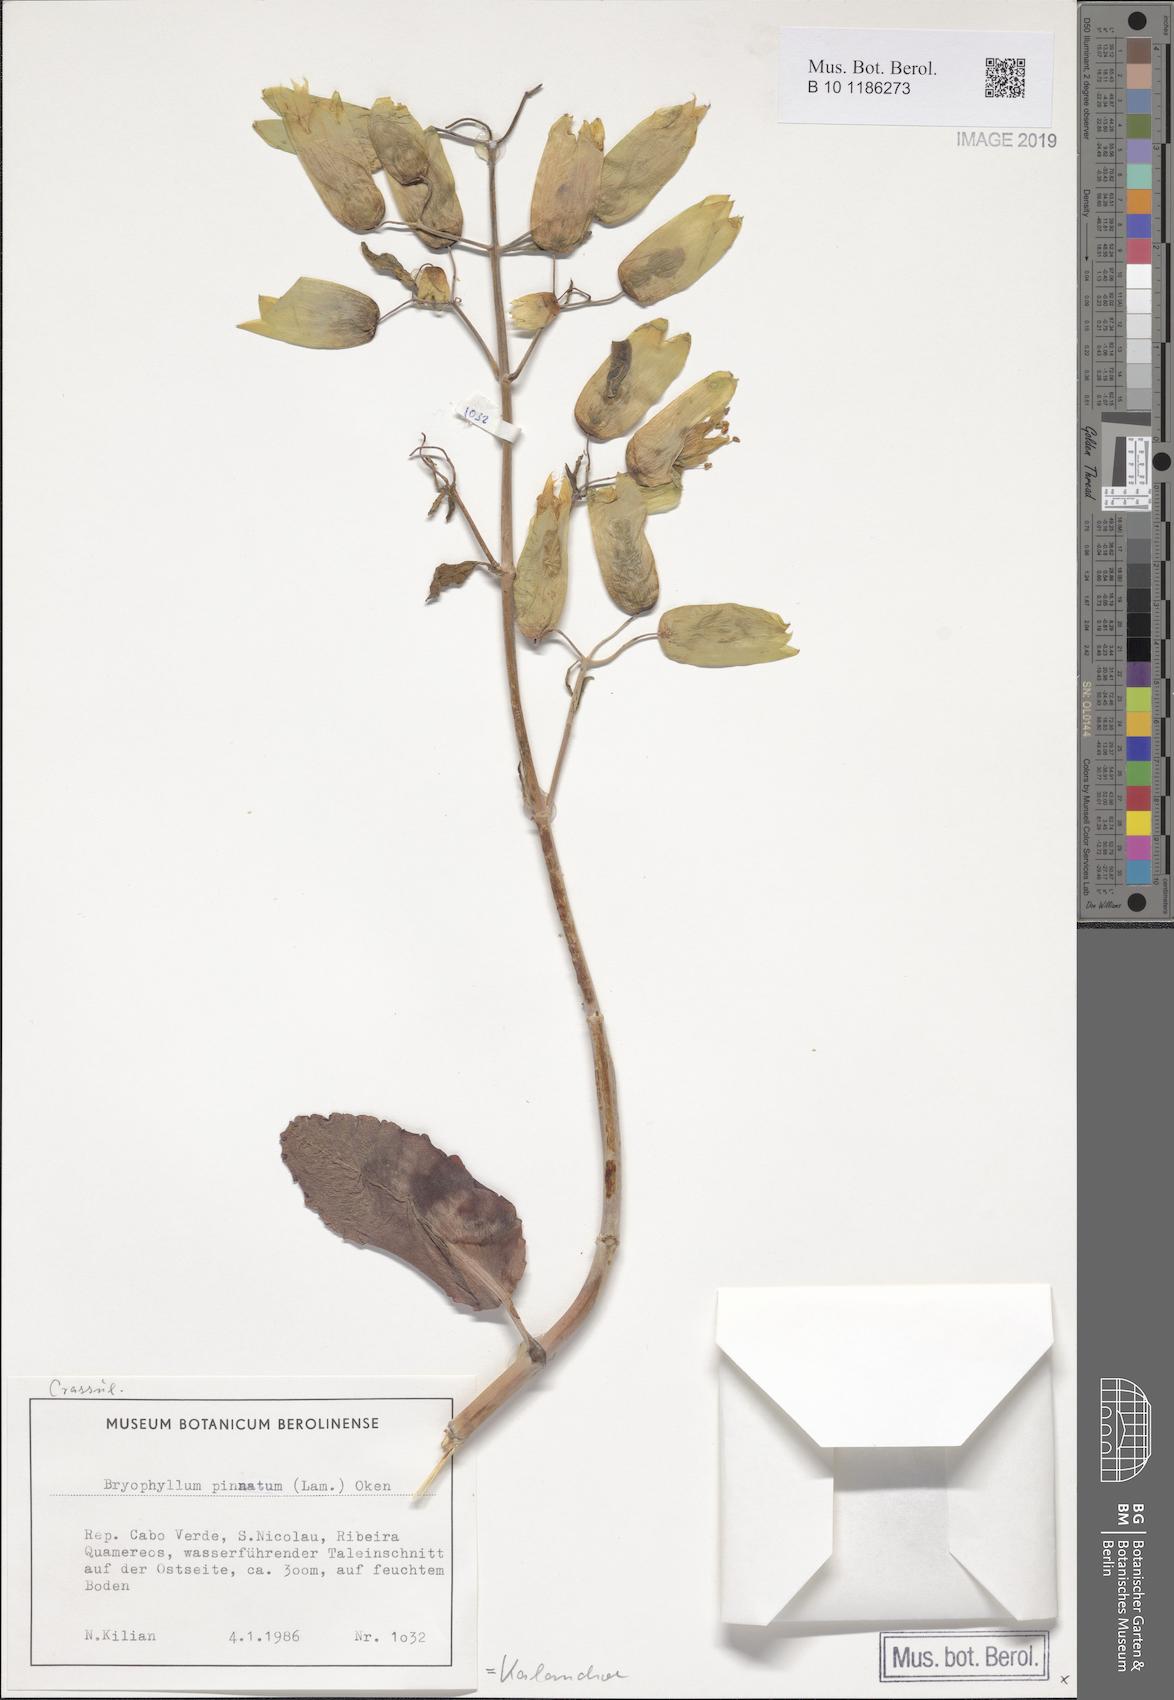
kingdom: Plantae
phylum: Tracheophyta
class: Magnoliopsida
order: Saxifragales
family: Crassulaceae
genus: Kalanchoe
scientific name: Kalanchoe pinnata
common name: Cathedral bells
